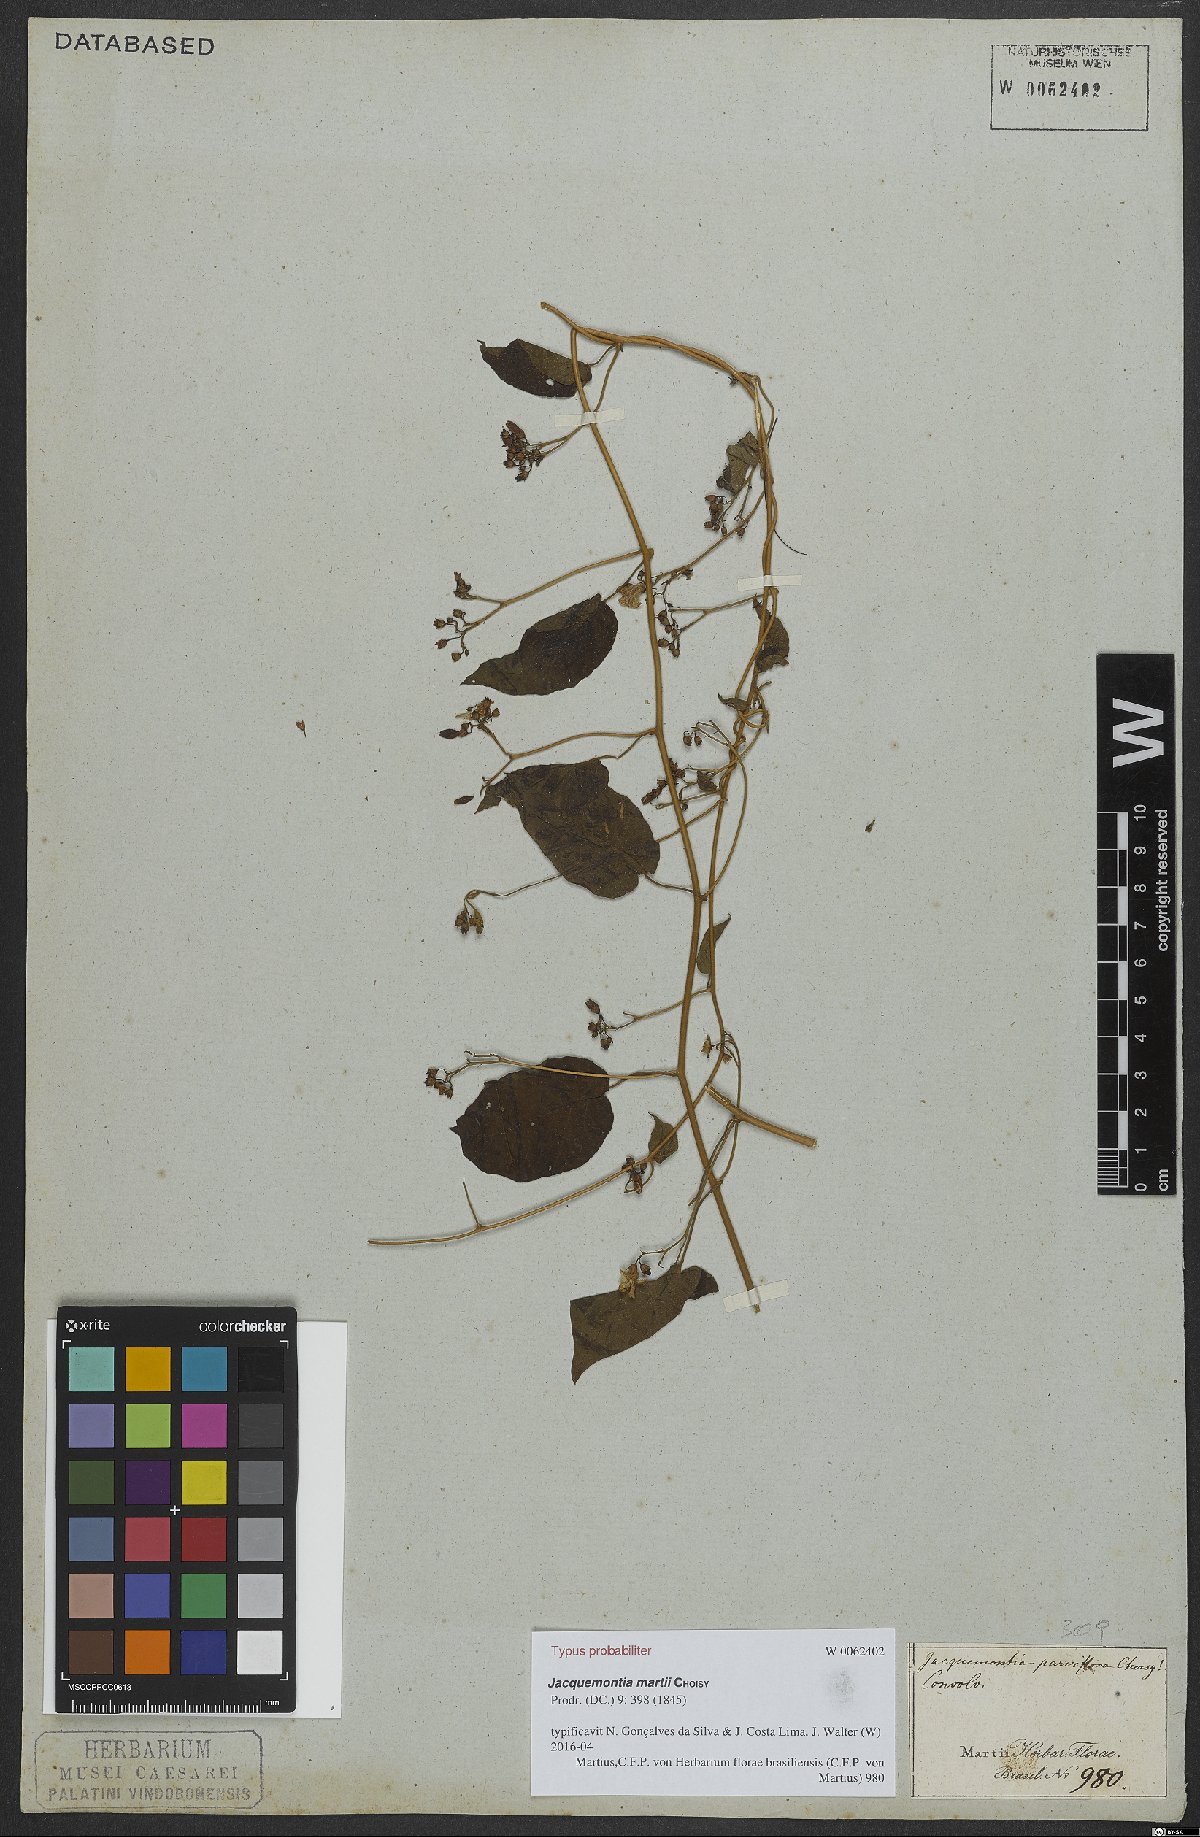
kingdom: Plantae
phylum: Tracheophyta
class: Magnoliopsida
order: Solanales
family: Convolvulaceae
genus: Jacquemontia
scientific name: Jacquemontia martii
